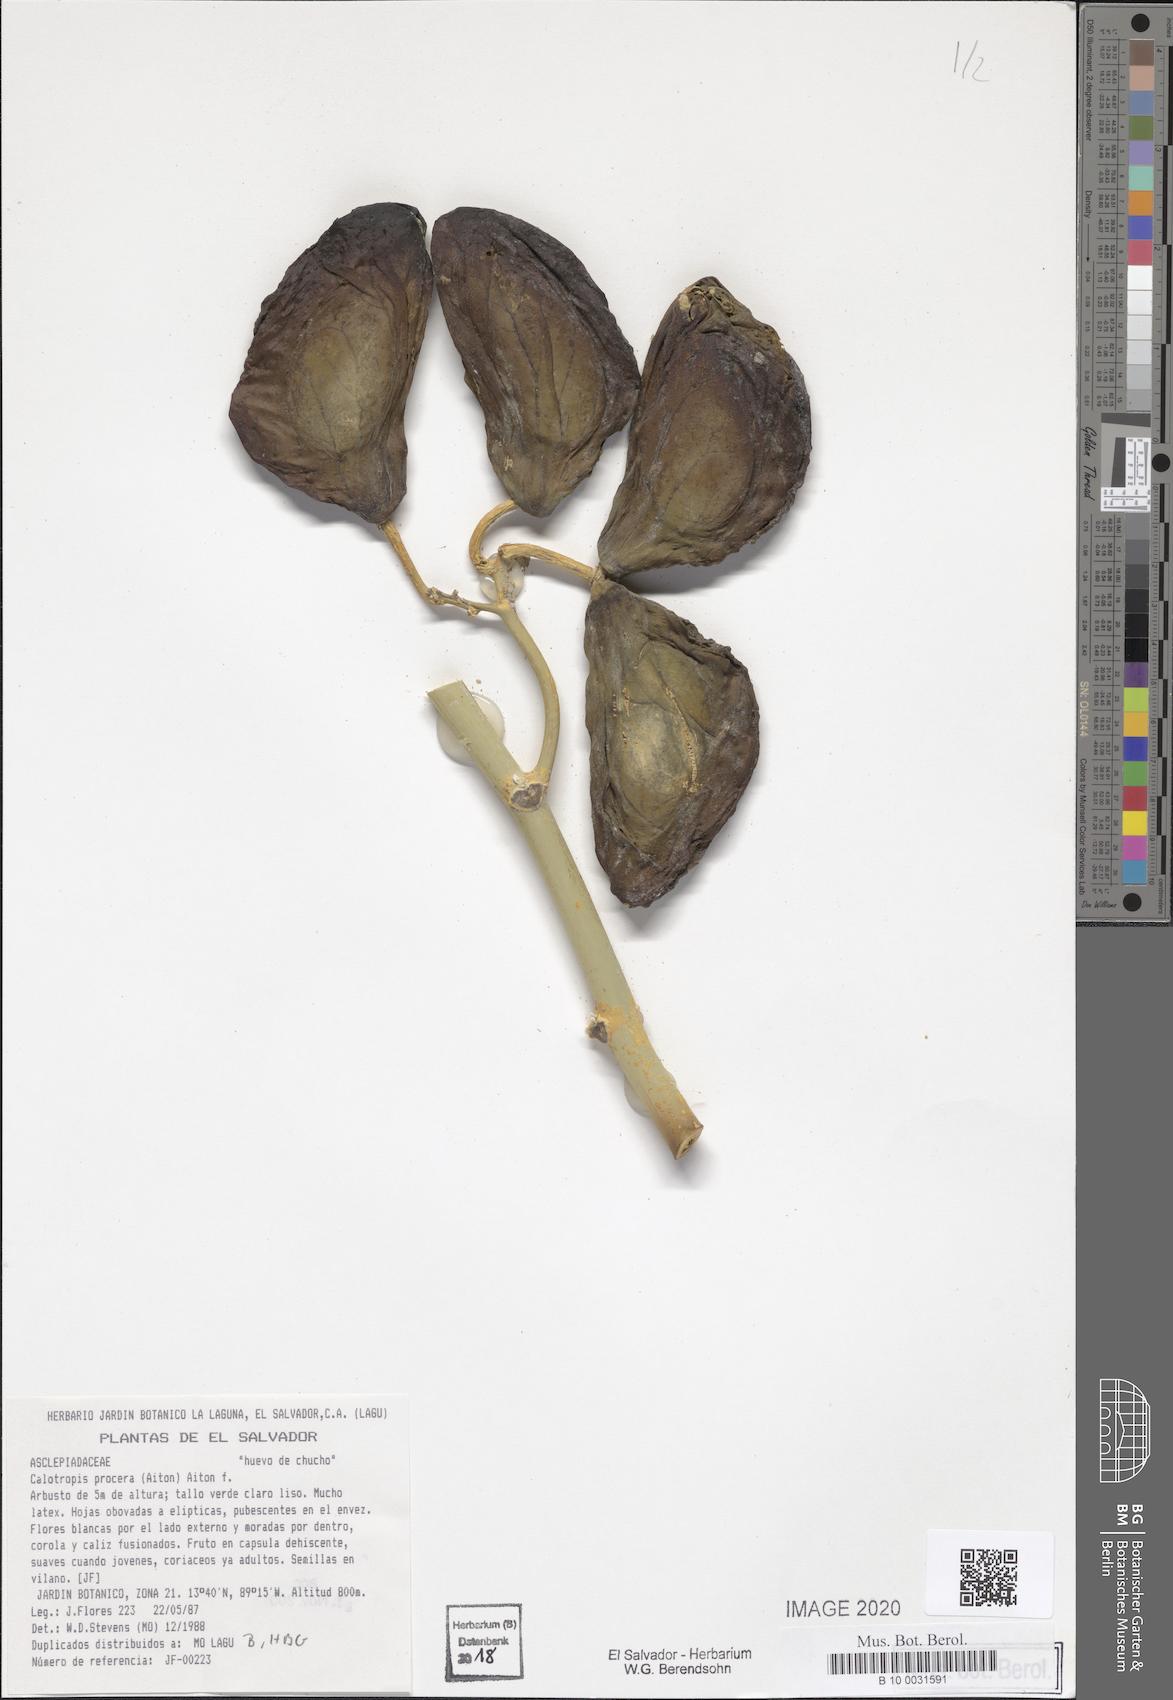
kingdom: Plantae
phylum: Tracheophyta
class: Magnoliopsida
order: Gentianales
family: Apocynaceae
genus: Calotropis
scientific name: Calotropis procera
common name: Roostertree
